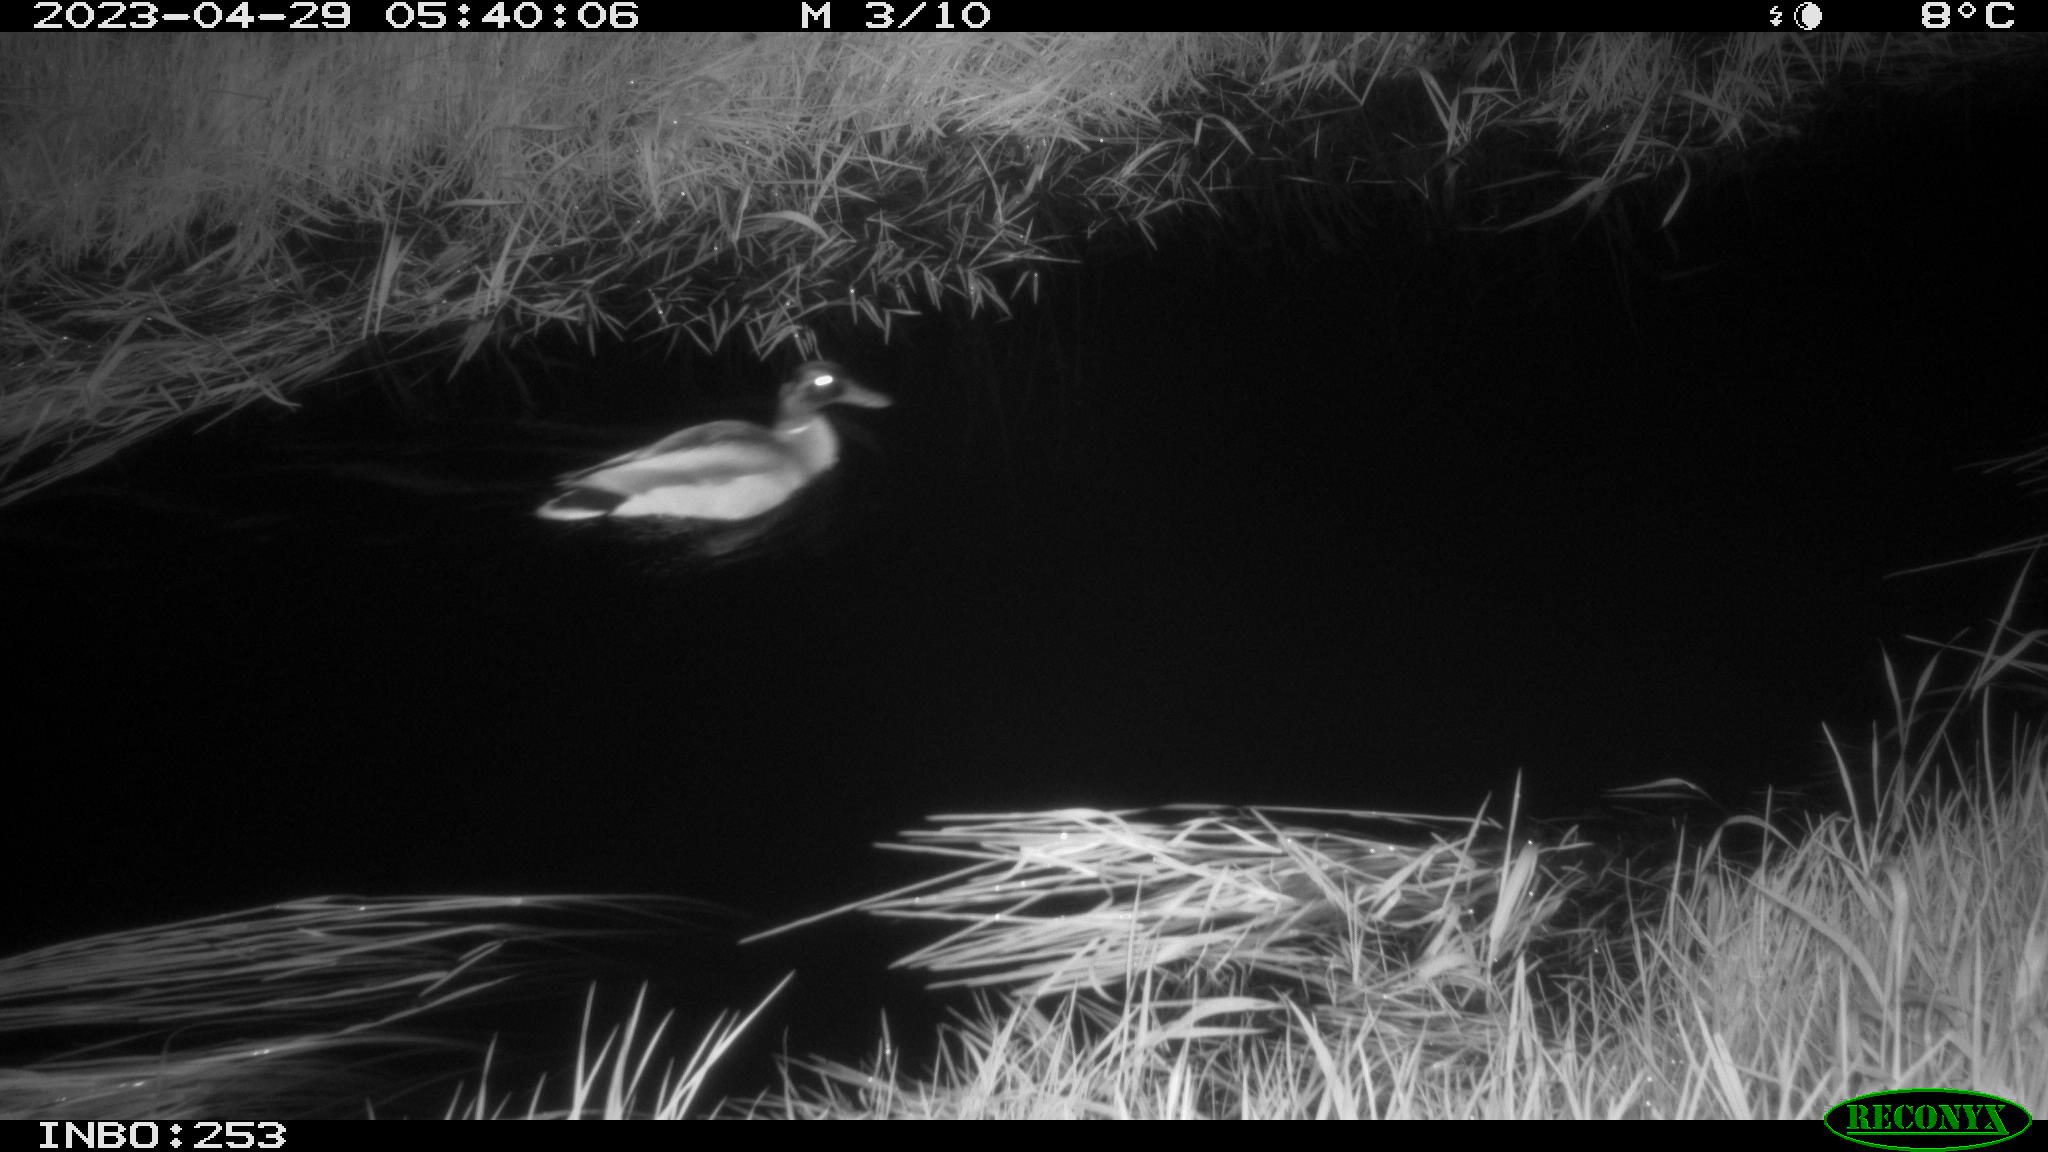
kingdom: Animalia
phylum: Chordata
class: Aves
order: Anseriformes
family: Anatidae
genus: Anas
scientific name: Anas
